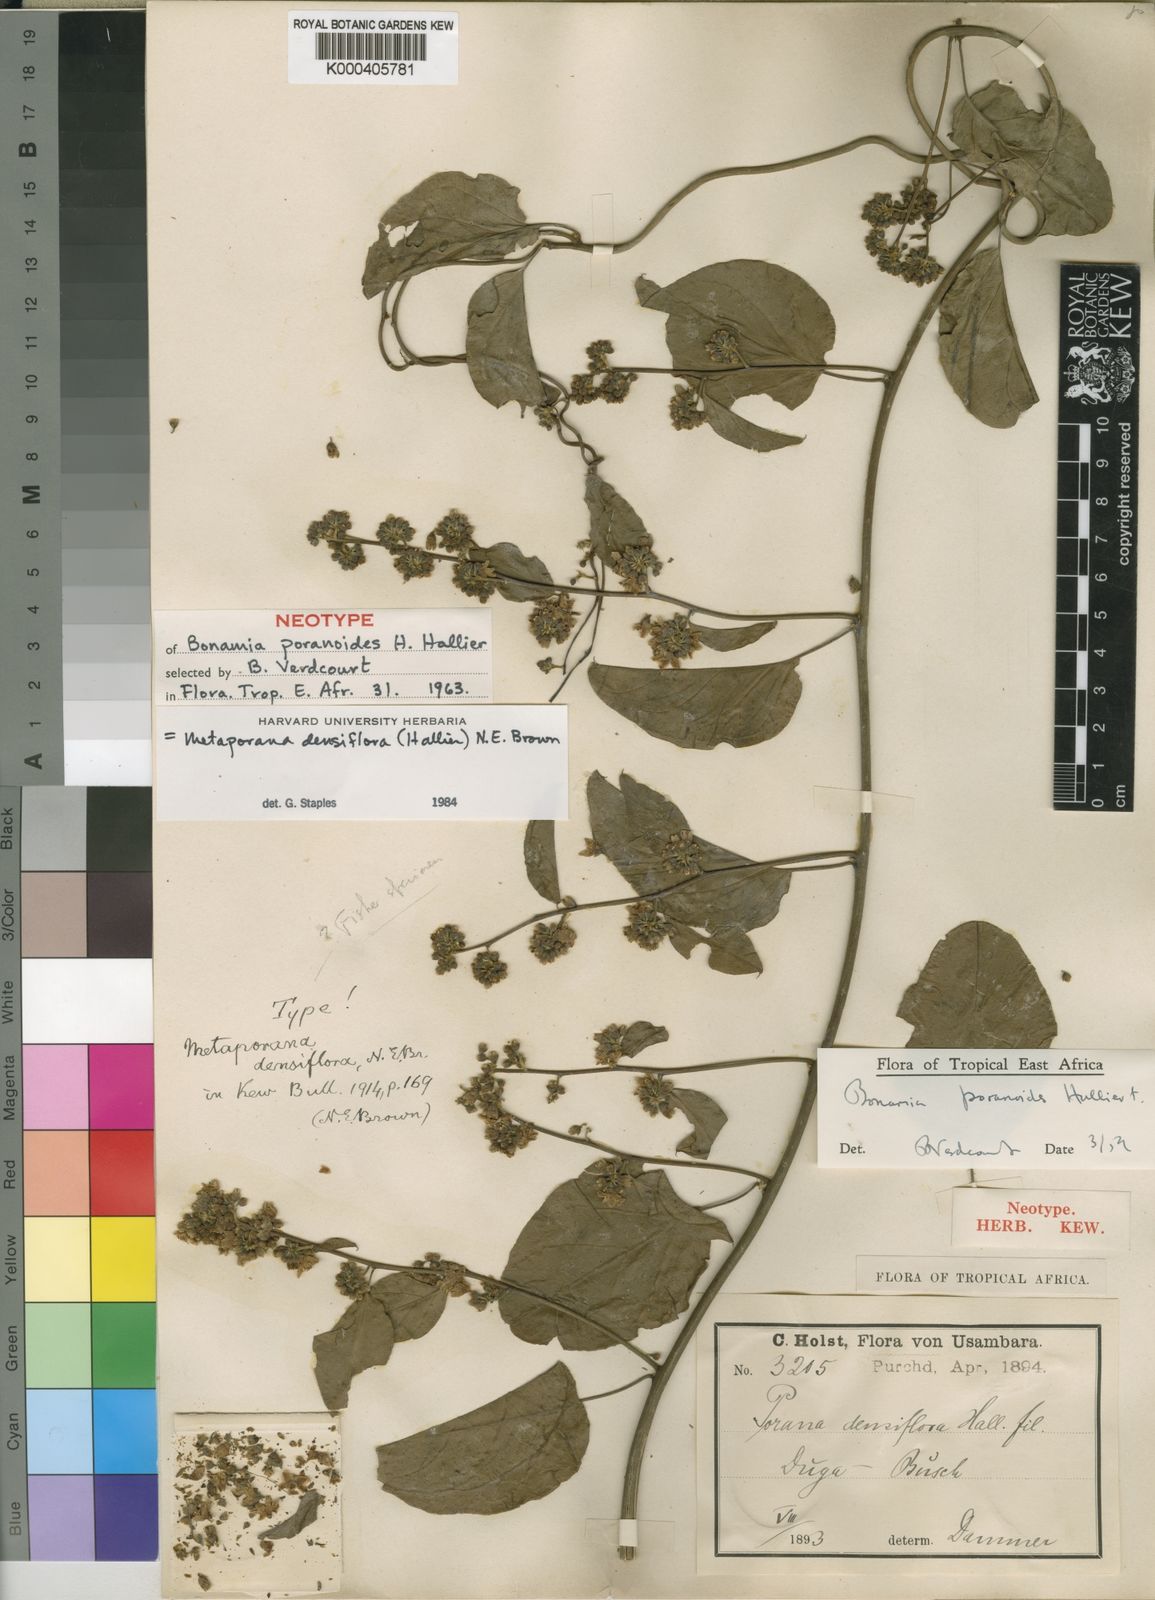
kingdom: Plantae
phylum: Tracheophyta
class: Magnoliopsida
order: Solanales
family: Convolvulaceae
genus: Metaporana
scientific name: Metaporana densiflora
